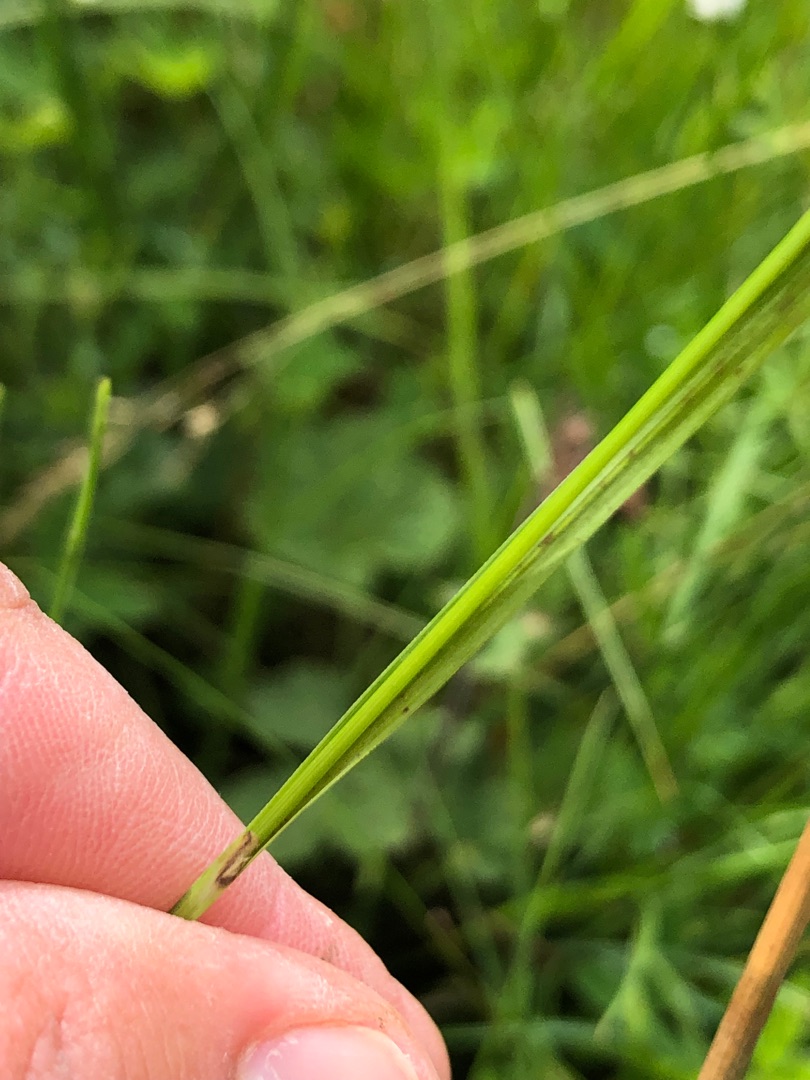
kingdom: Plantae
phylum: Tracheophyta
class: Liliopsida
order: Poales
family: Cyperaceae
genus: Carex
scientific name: Carex hostiana
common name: Skede-star
